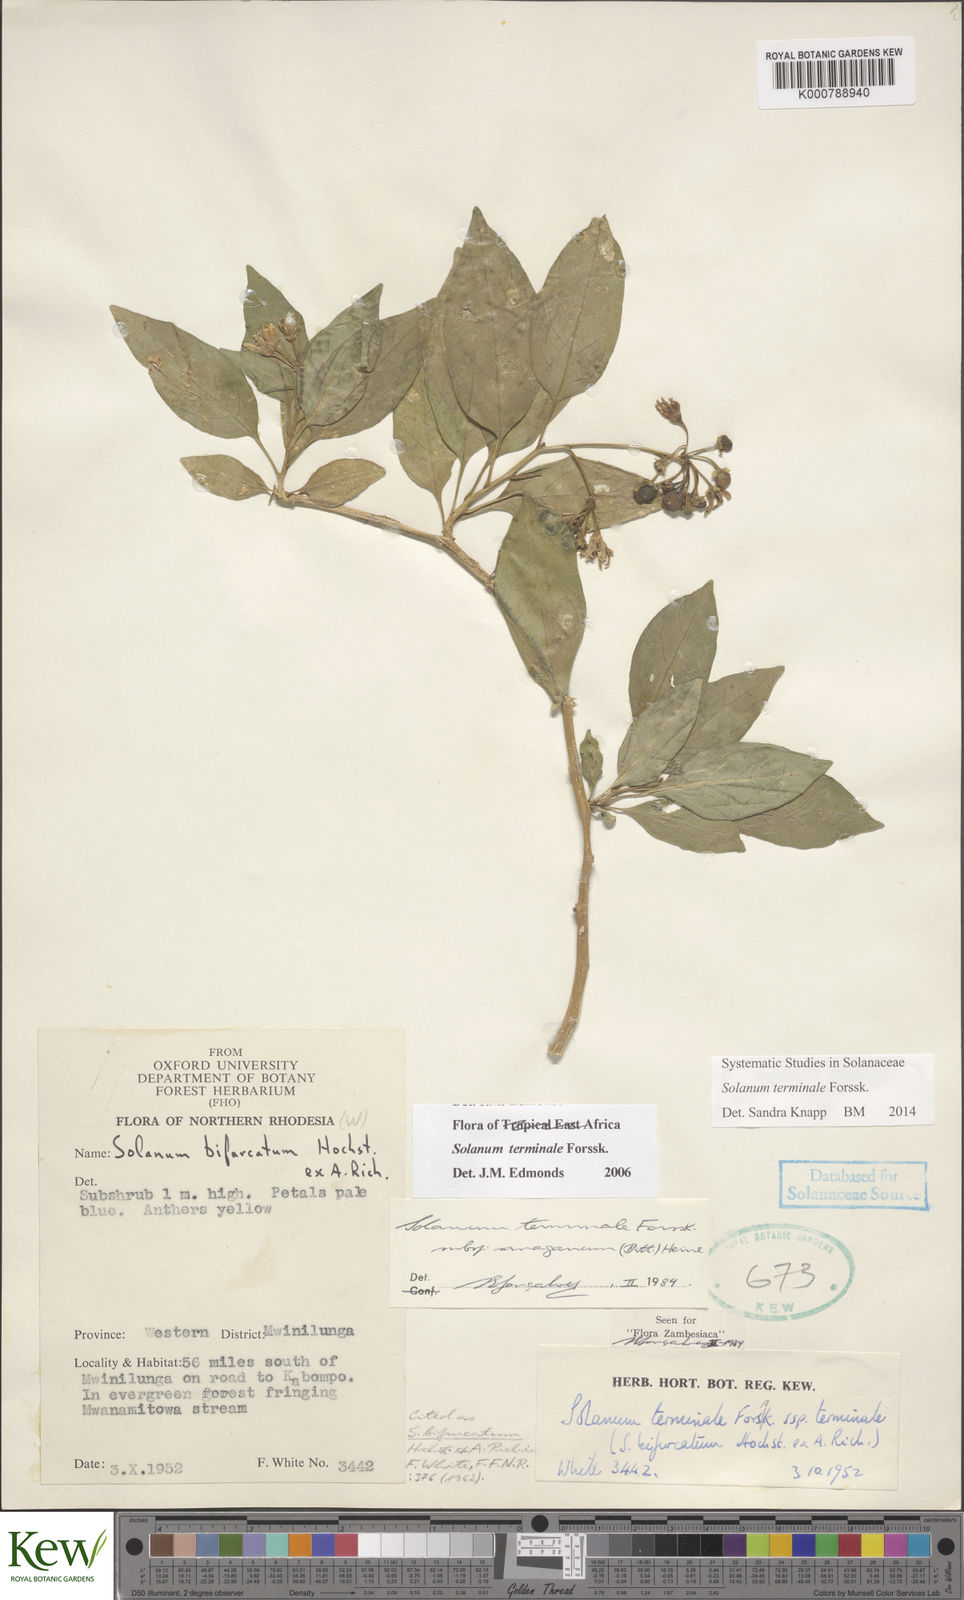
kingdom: Plantae
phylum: Tracheophyta
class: Magnoliopsida
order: Solanales
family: Solanaceae
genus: Solanum
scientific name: Solanum terminale
